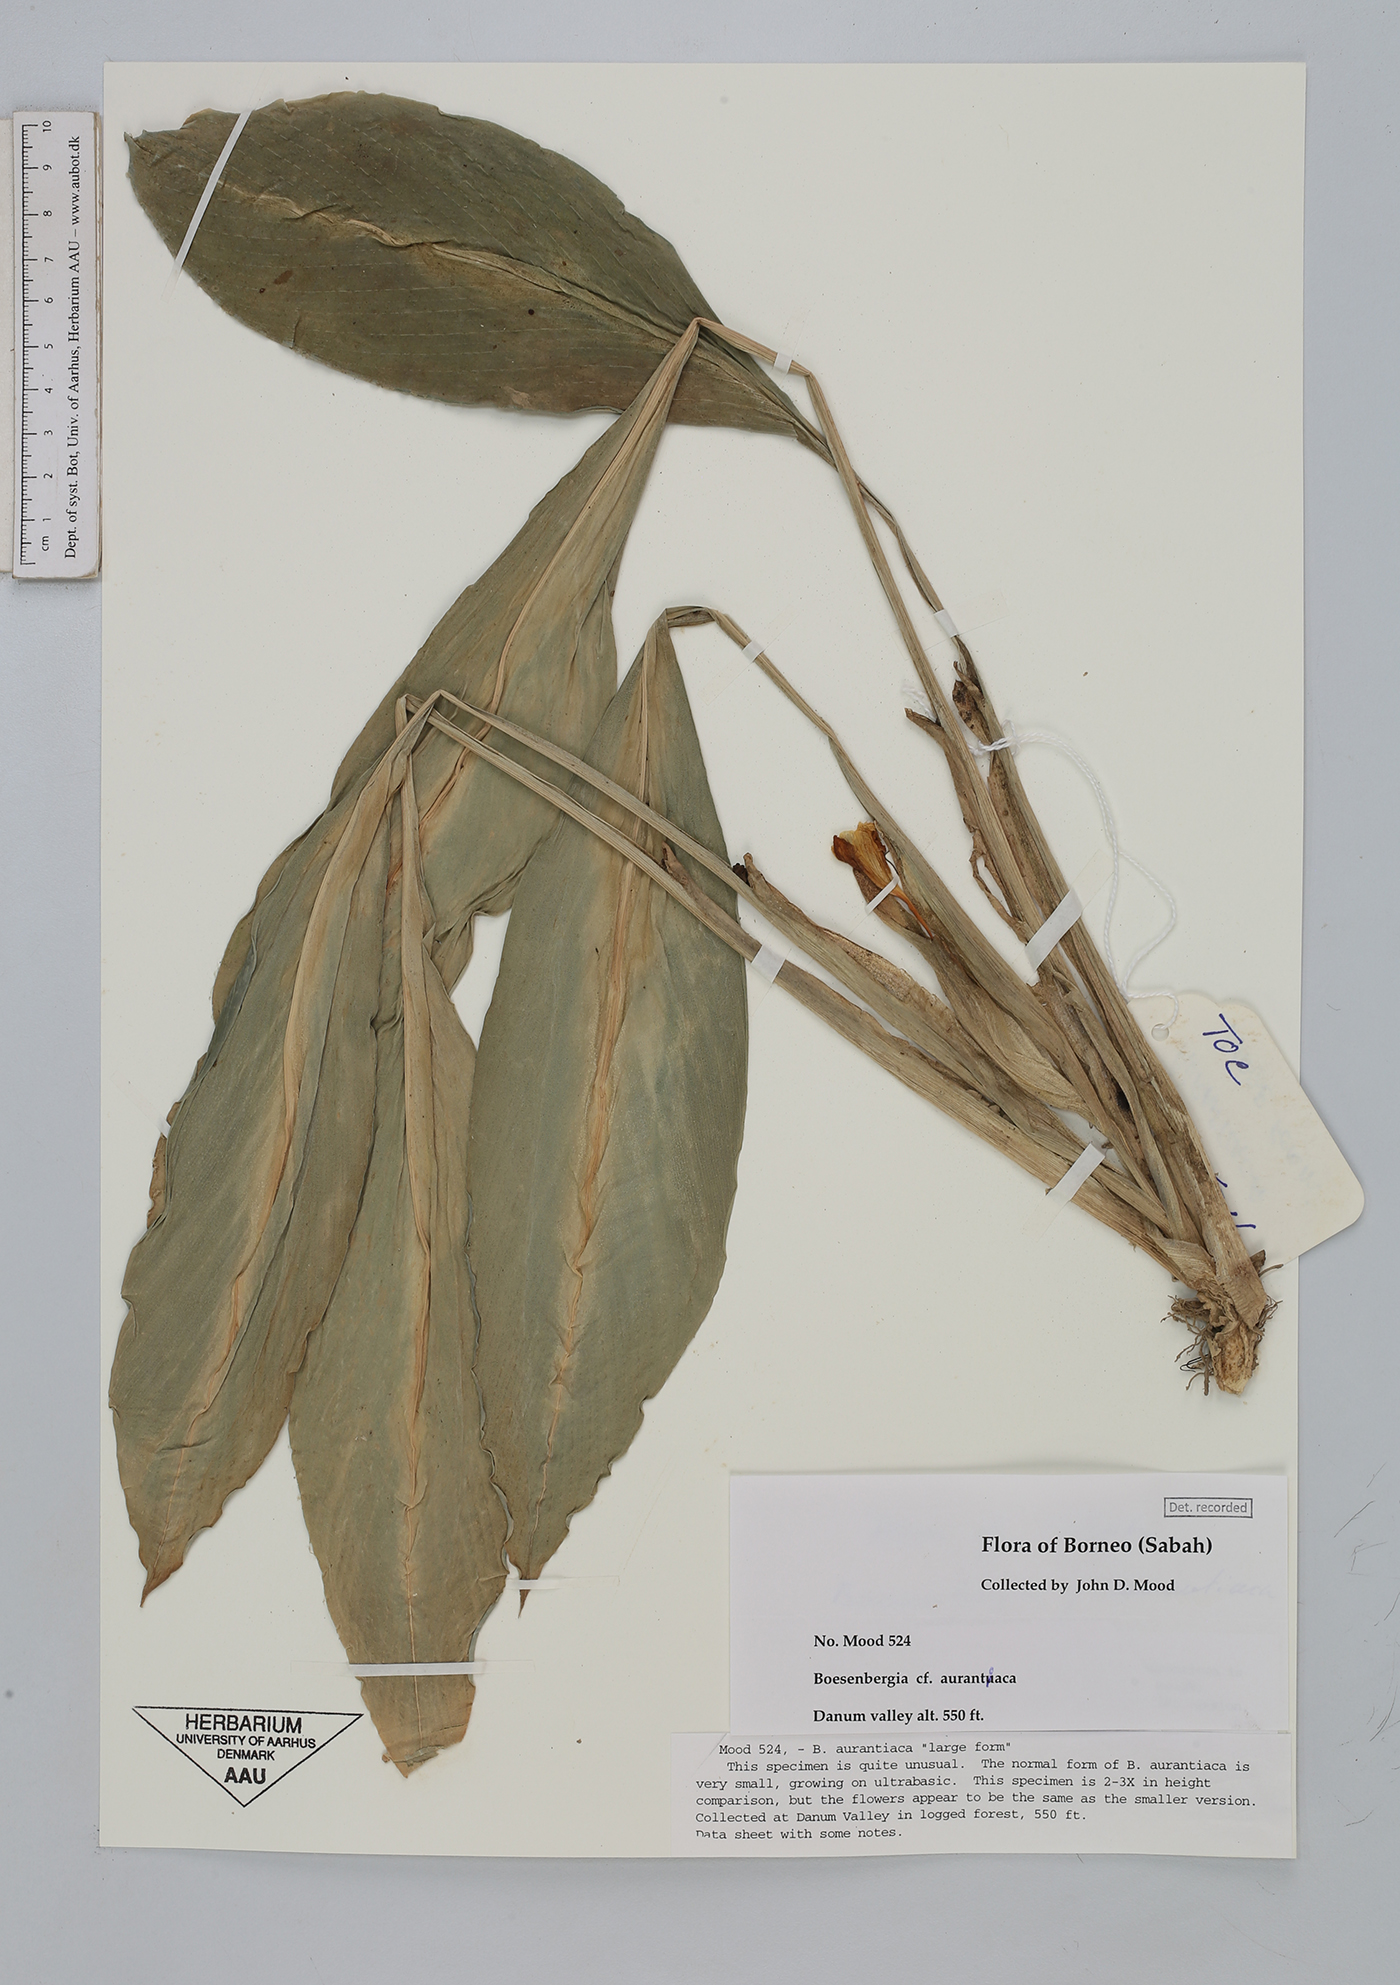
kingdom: Plantae
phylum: Tracheophyta
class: Liliopsida
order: Zingiberales
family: Zingiberaceae
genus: Boesenbergia
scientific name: Boesenbergia aurantiaca
